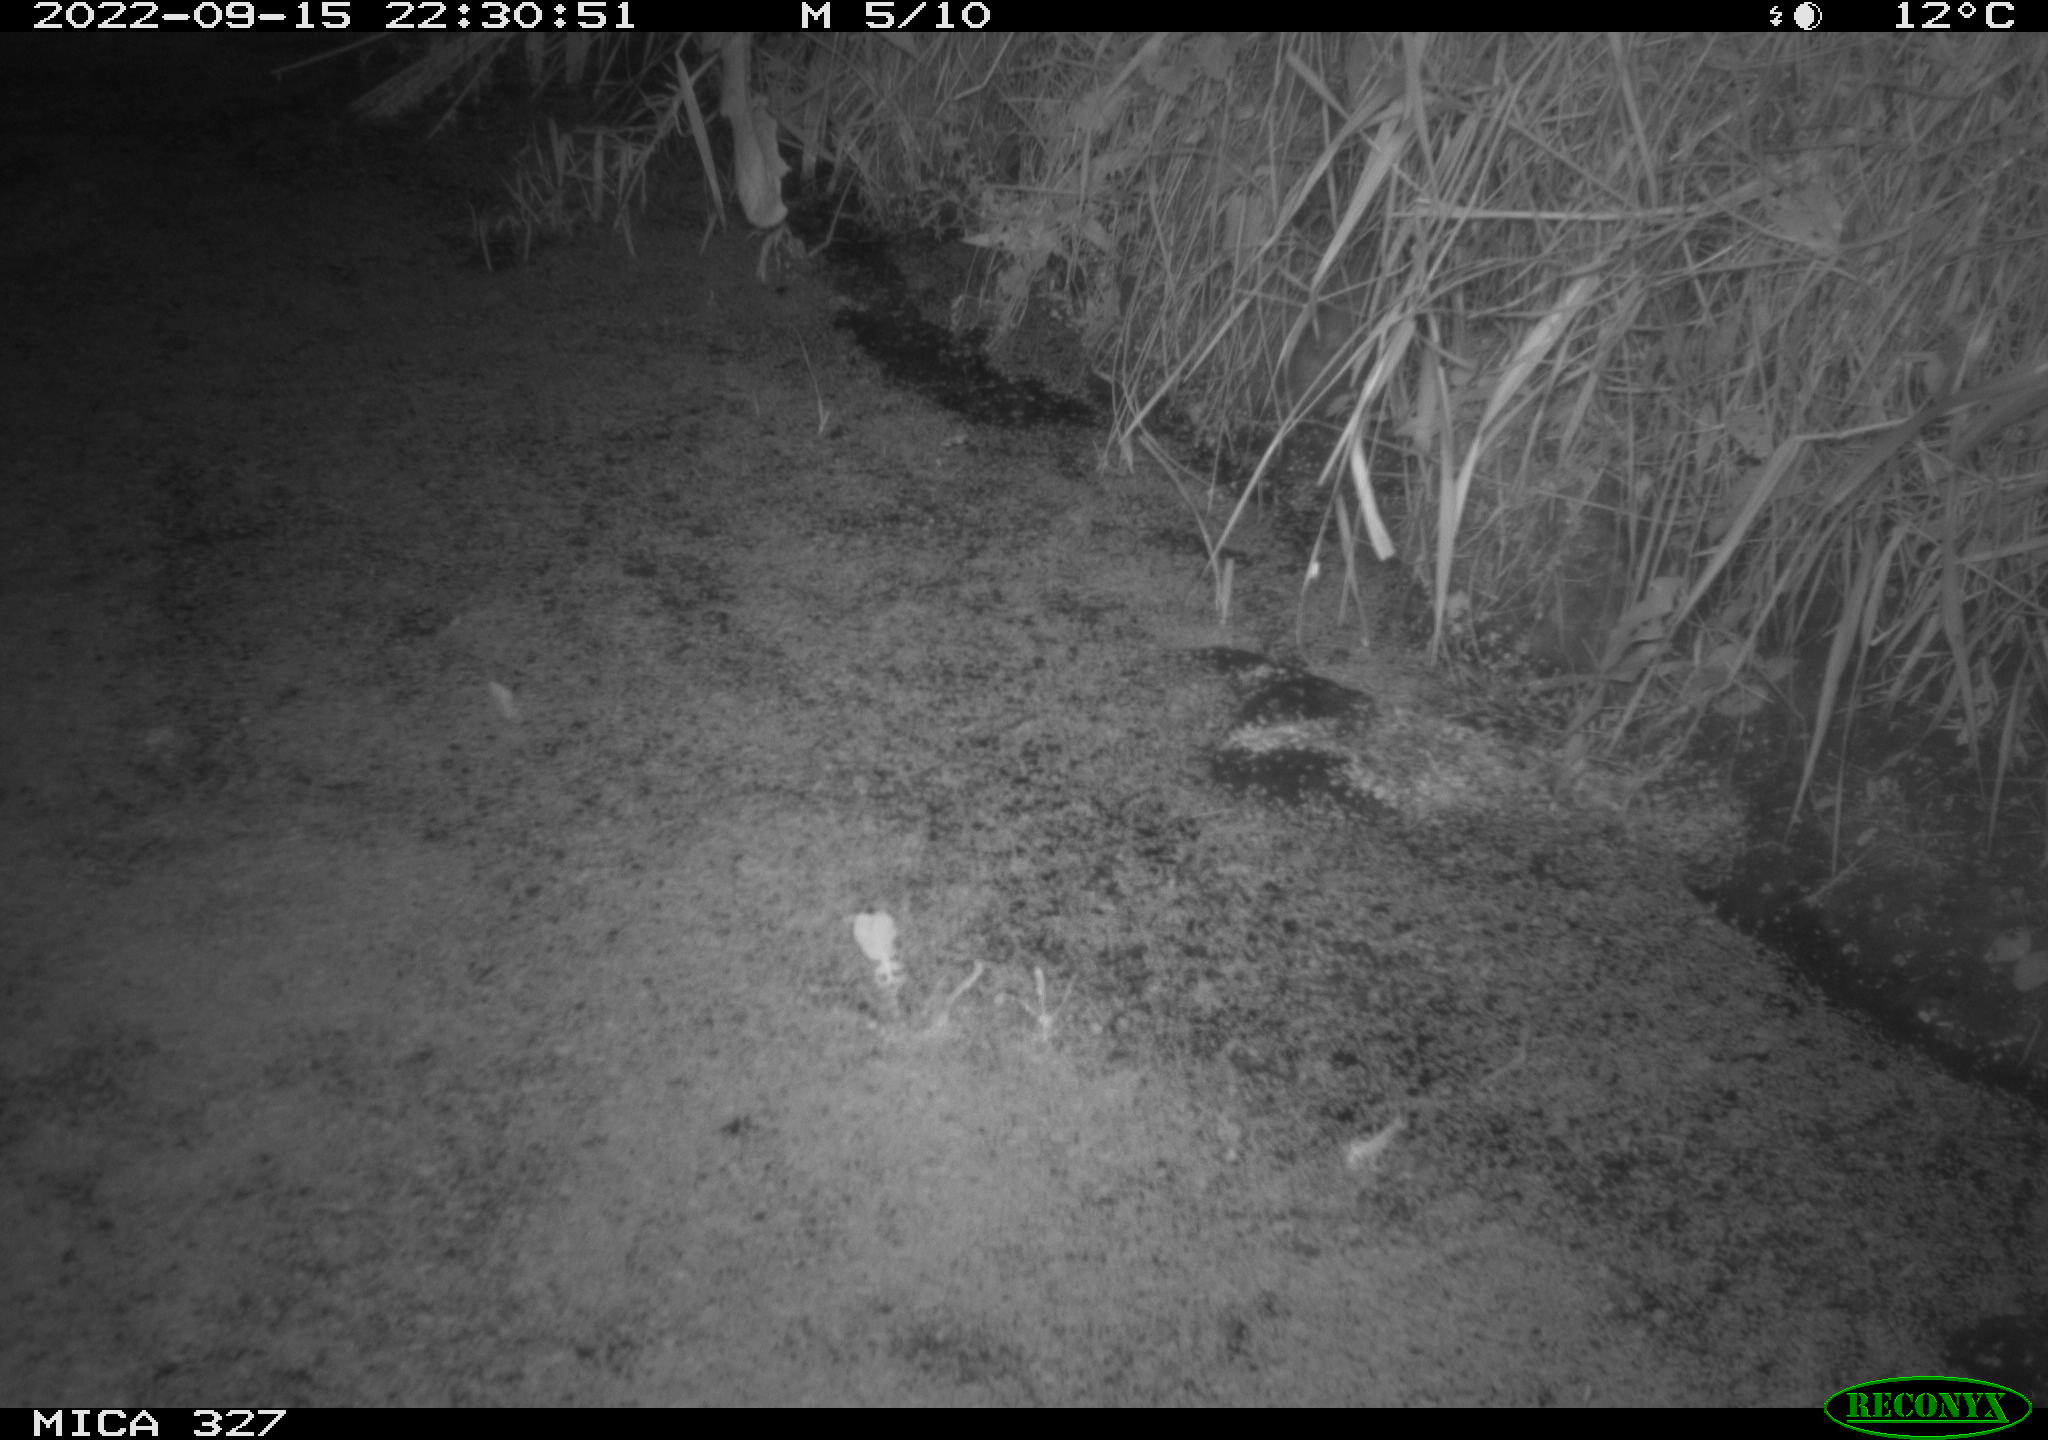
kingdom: Animalia
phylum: Chordata
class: Mammalia
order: Rodentia
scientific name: Rodentia
